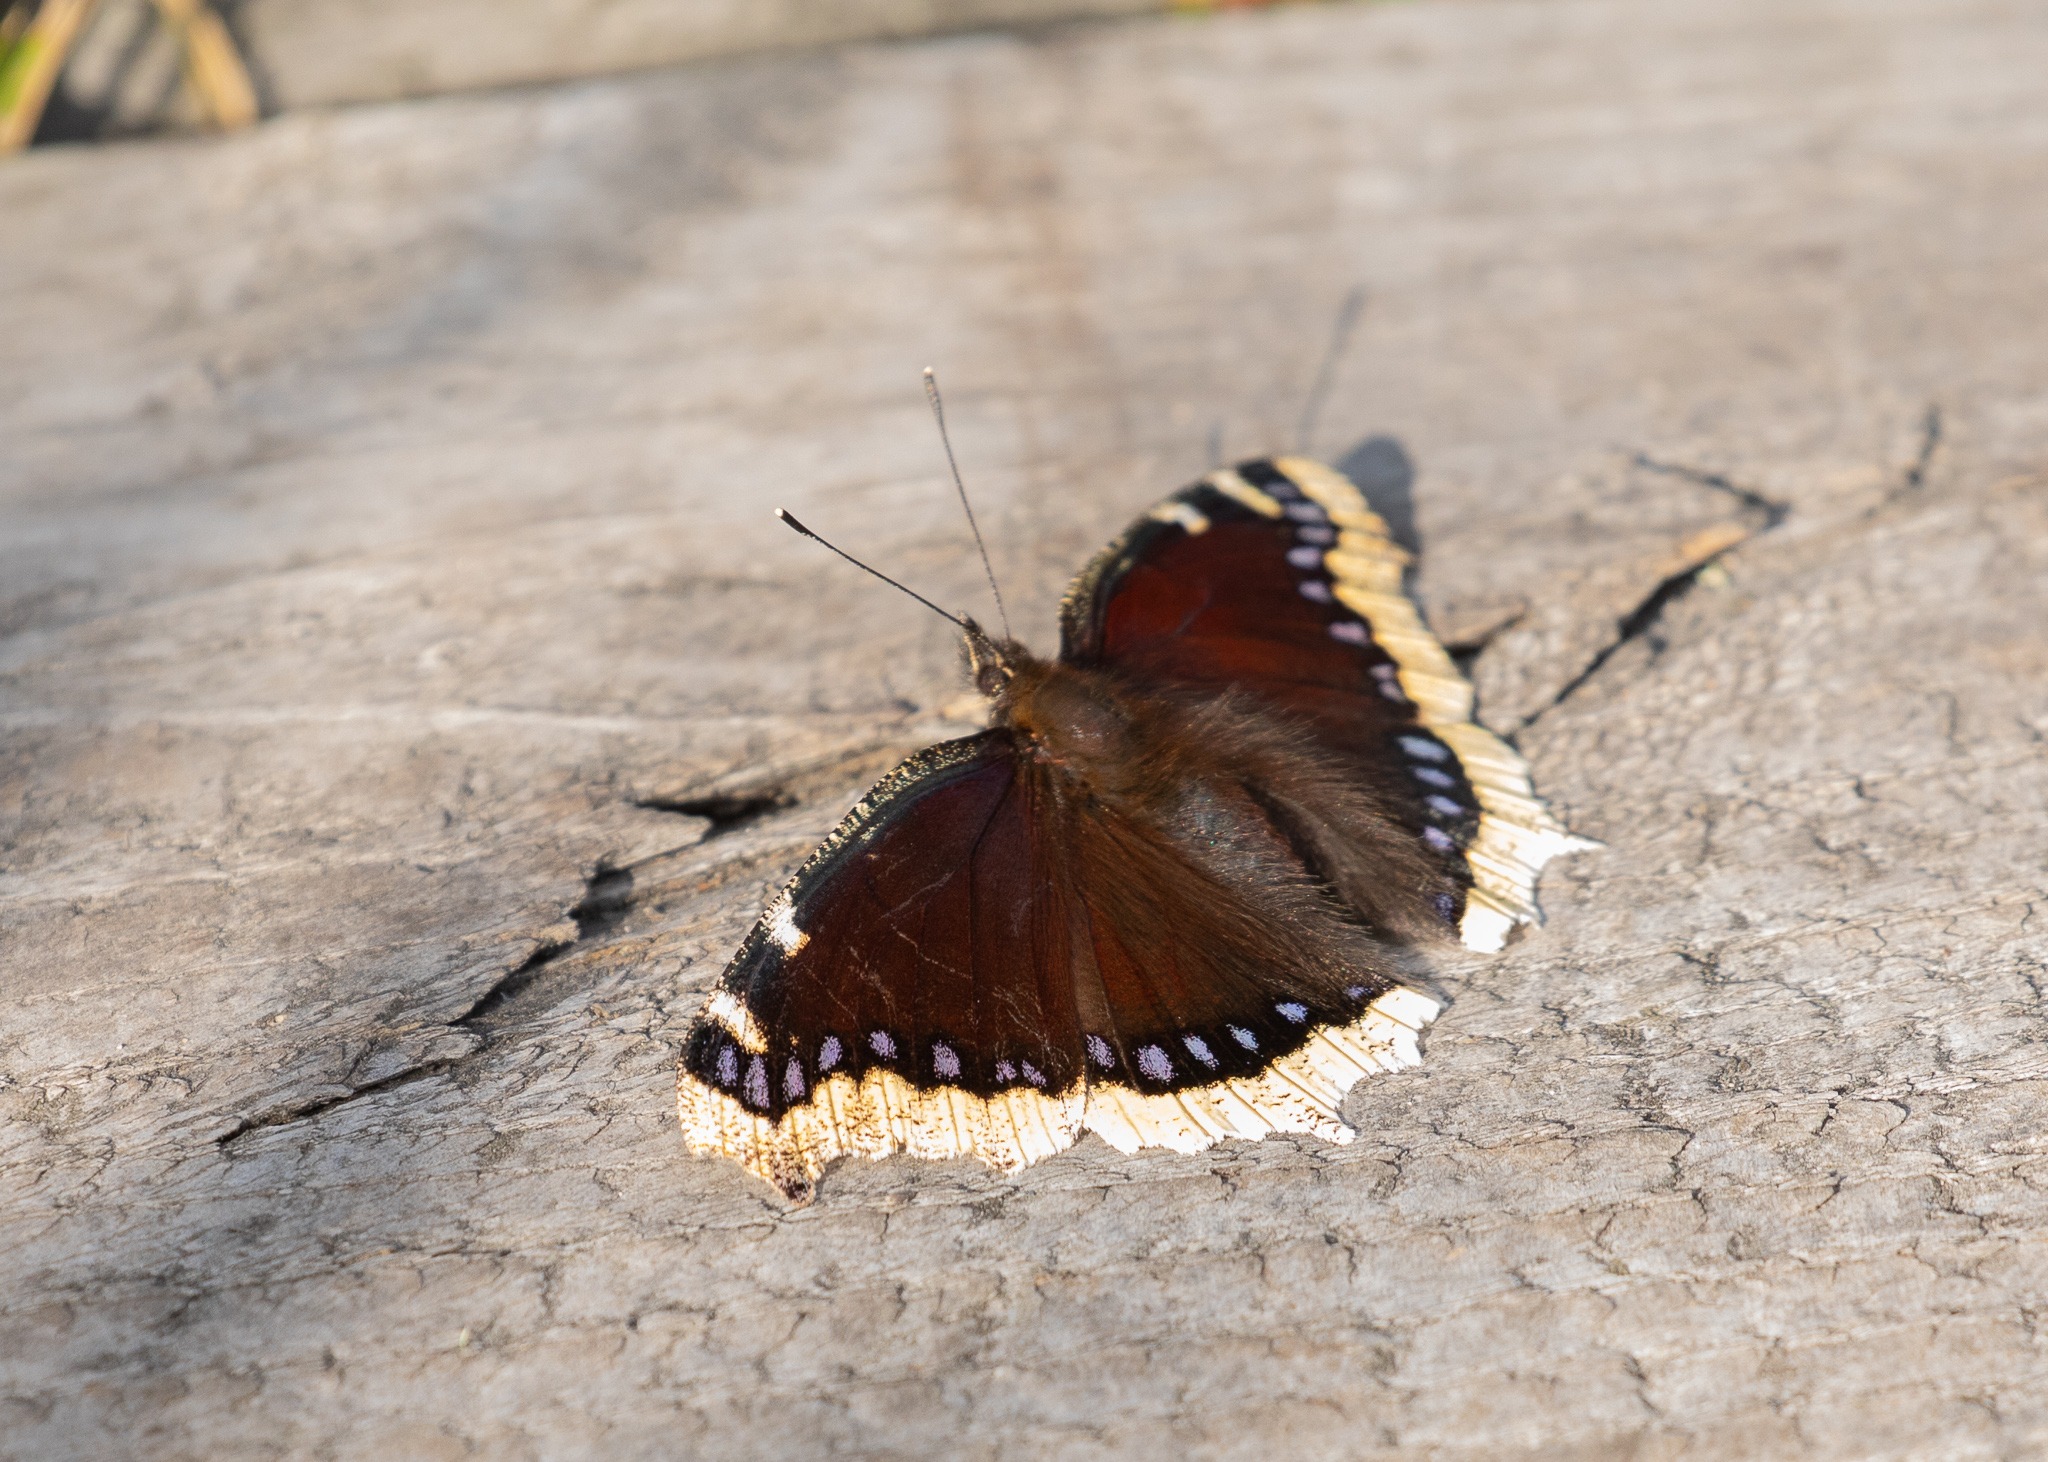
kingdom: Animalia
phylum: Arthropoda
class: Insecta
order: Lepidoptera
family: Nymphalidae
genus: Nymphalis
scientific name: Nymphalis antiopa
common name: Sørgekåbe
